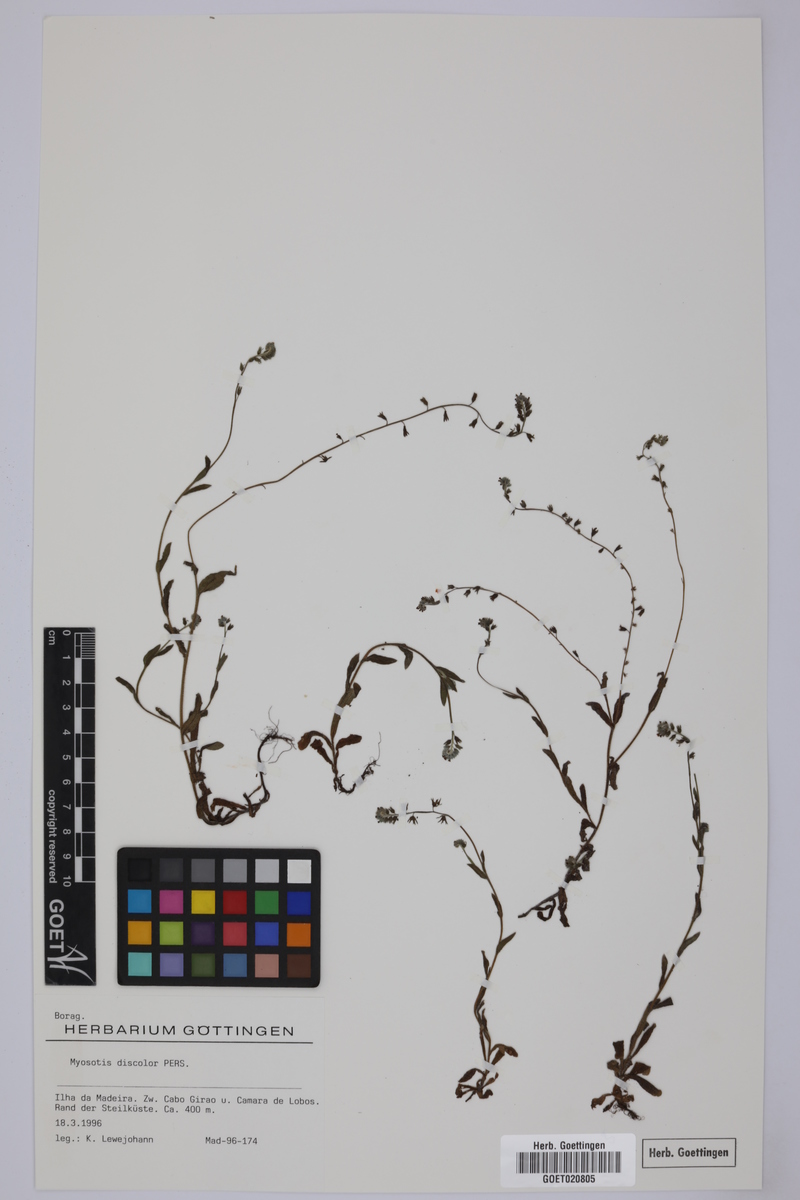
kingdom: Plantae
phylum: Tracheophyta
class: Magnoliopsida
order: Boraginales
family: Boraginaceae
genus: Myosotis
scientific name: Myosotis discolor
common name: Changing forget-me-not
